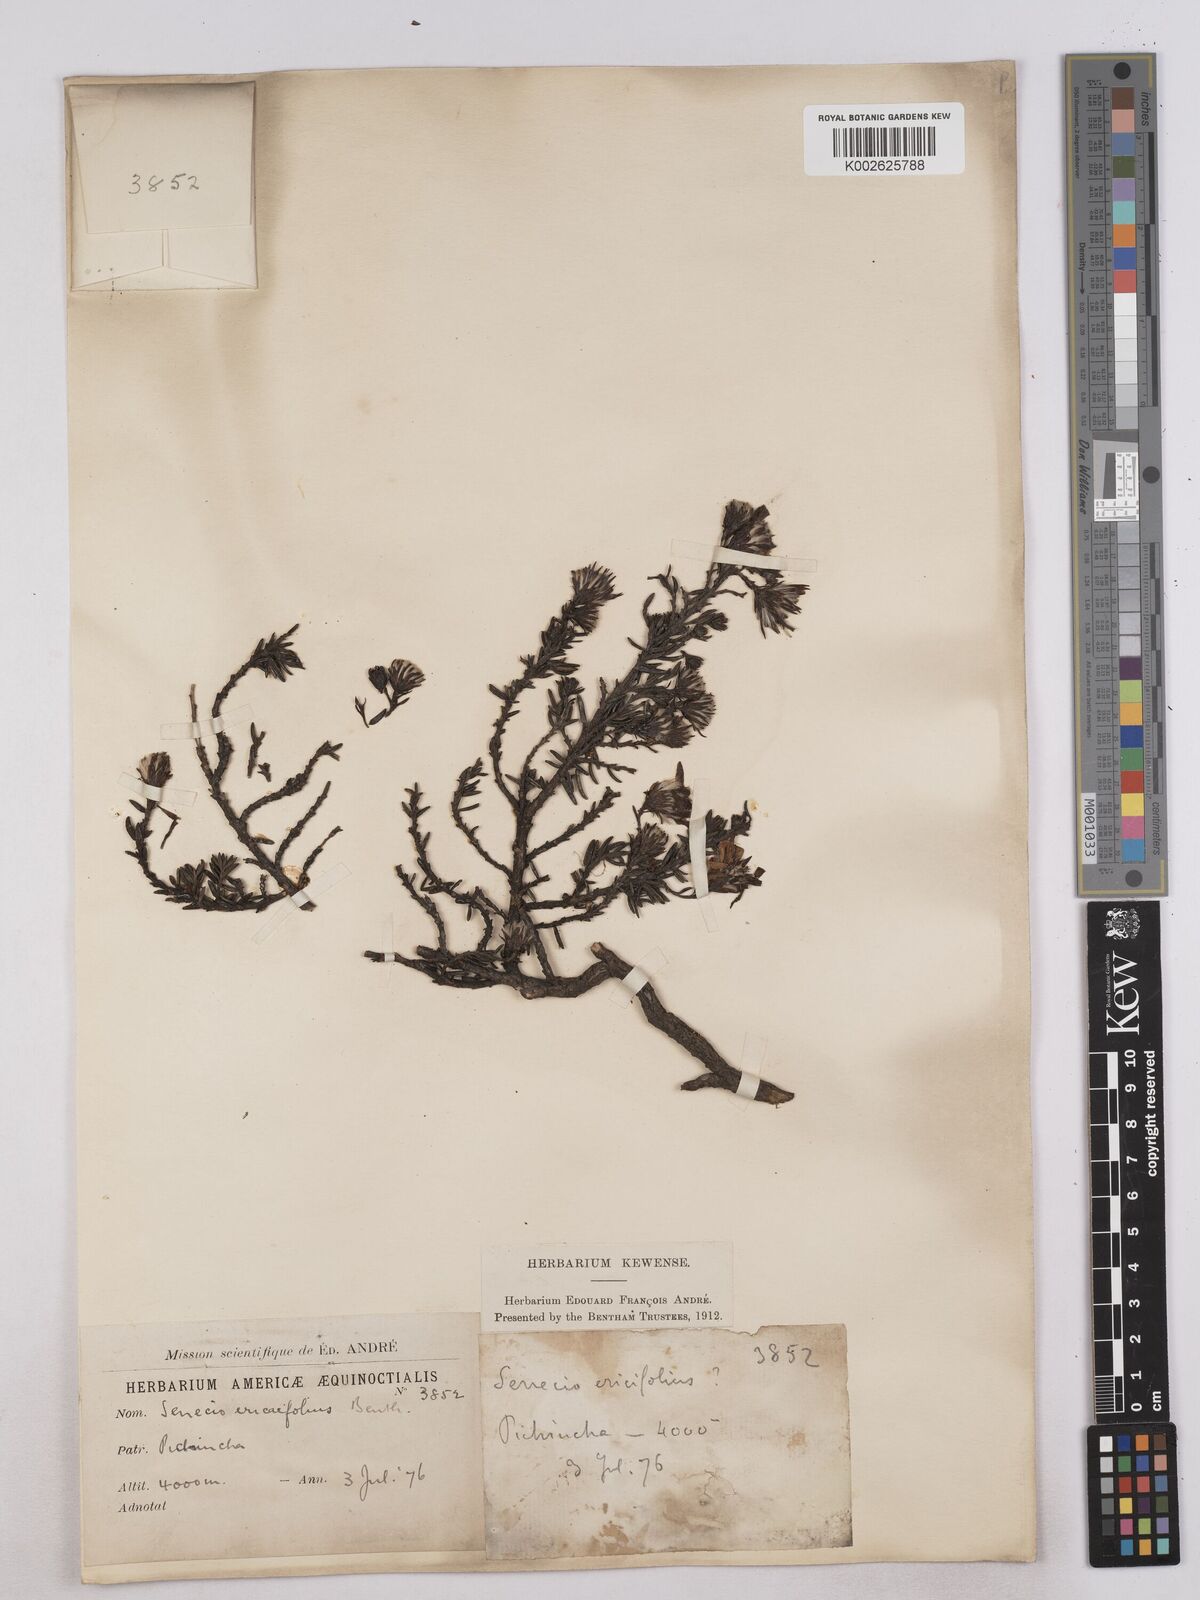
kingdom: Plantae
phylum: Tracheophyta
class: Magnoliopsida
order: Asterales
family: Asteraceae
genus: Monticalia
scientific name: Monticalia peruviana
